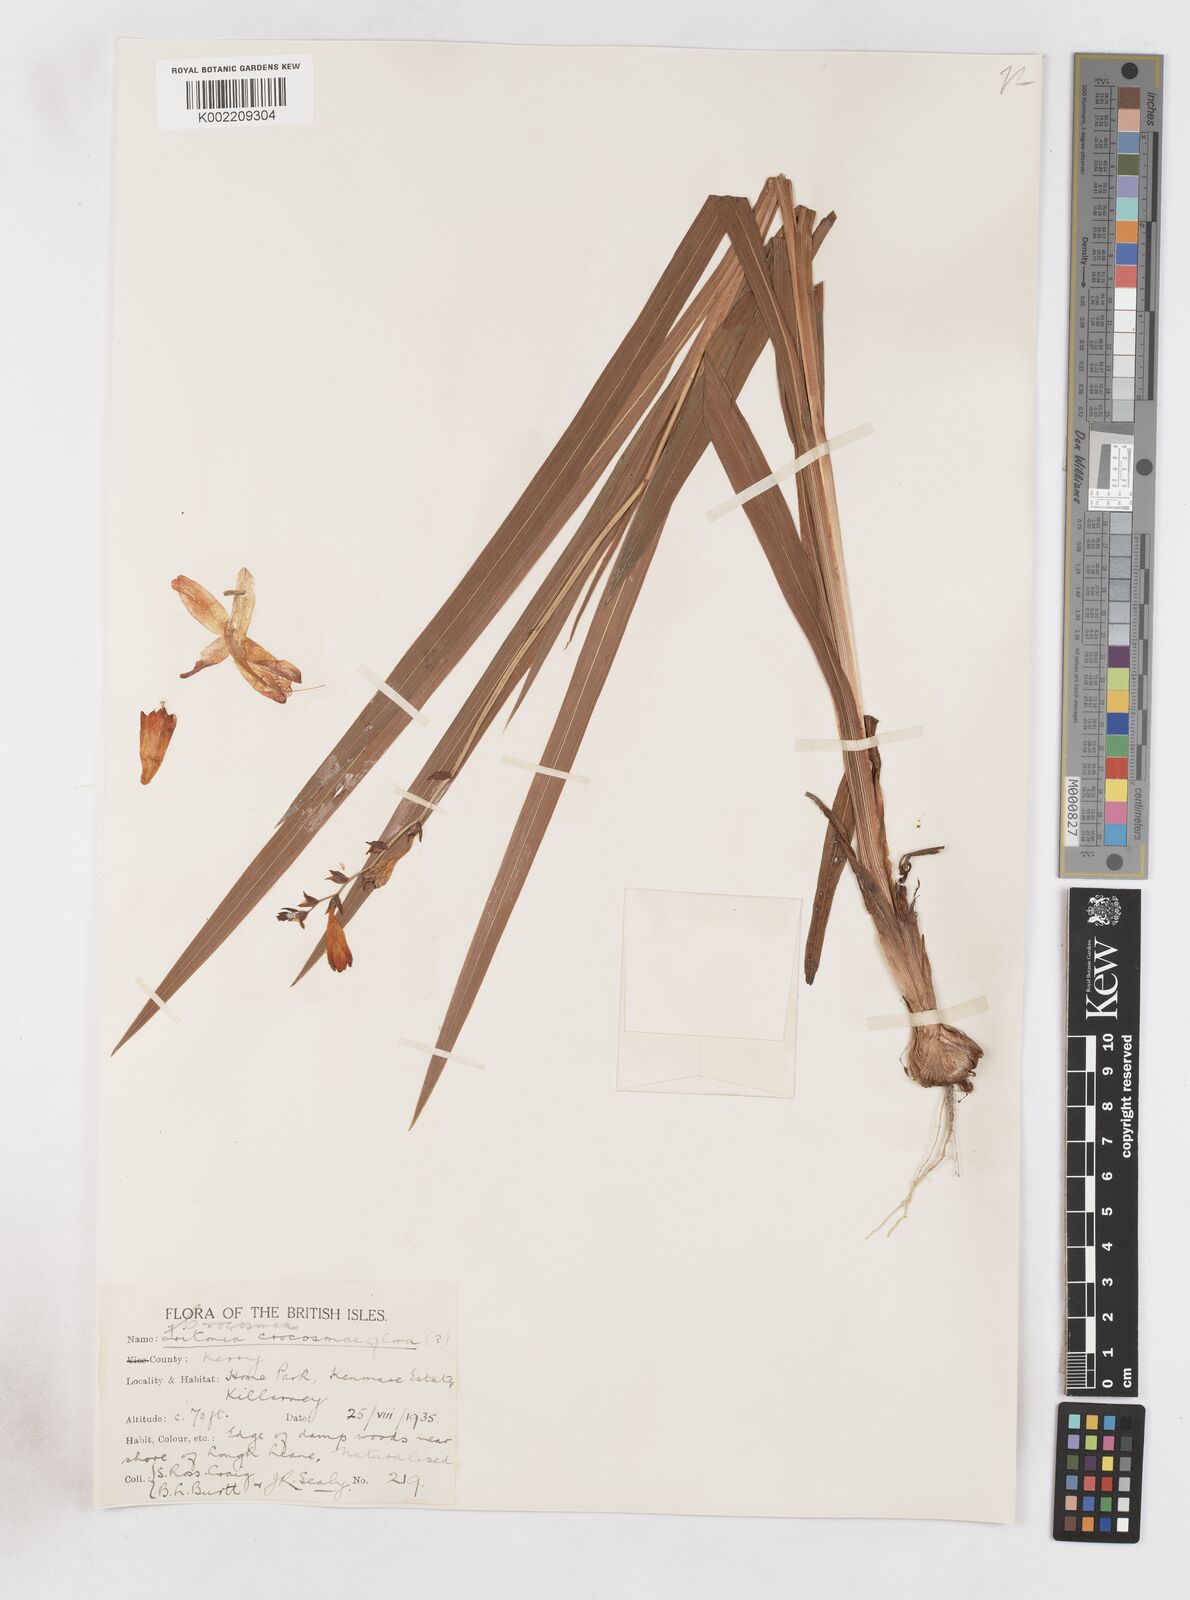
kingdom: Plantae
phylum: Tracheophyta
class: Liliopsida
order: Asparagales
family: Iridaceae
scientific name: Iridaceae
